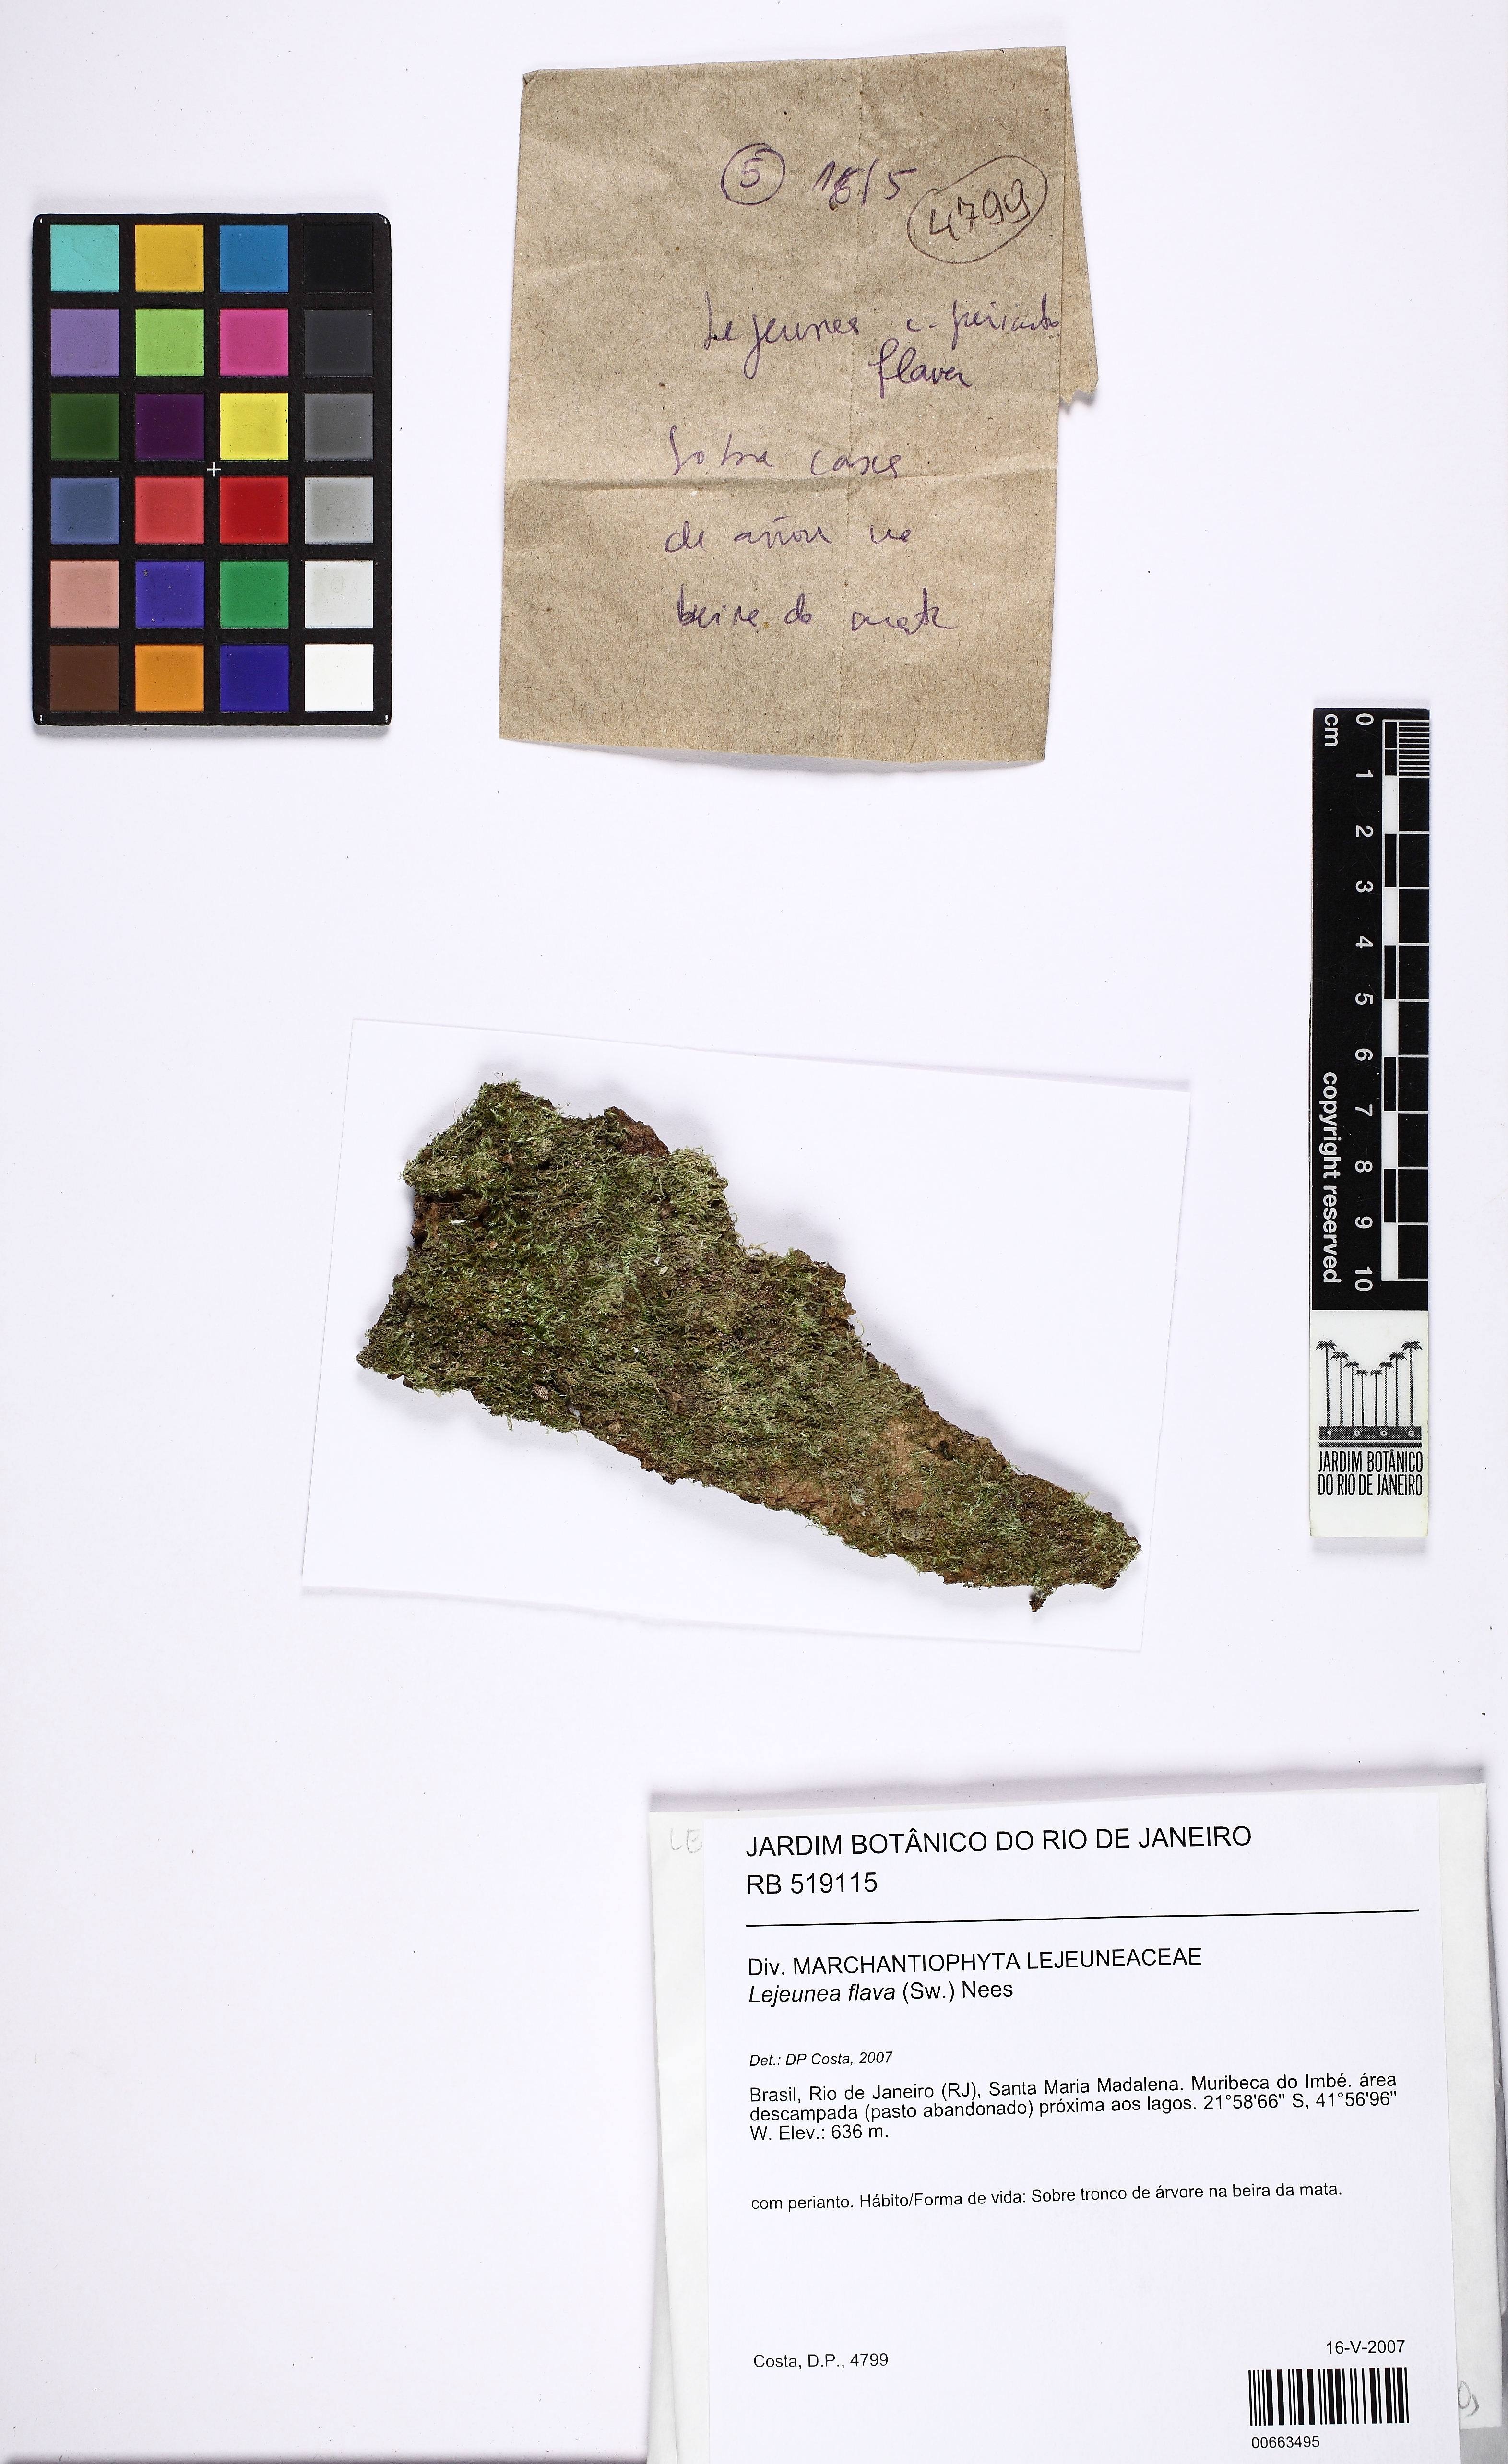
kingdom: Plantae
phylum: Marchantiophyta
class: Jungermanniopsida
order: Porellales
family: Lejeuneaceae
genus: Lejeunea
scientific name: Lejeunea flava
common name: Yellow pouncewort
